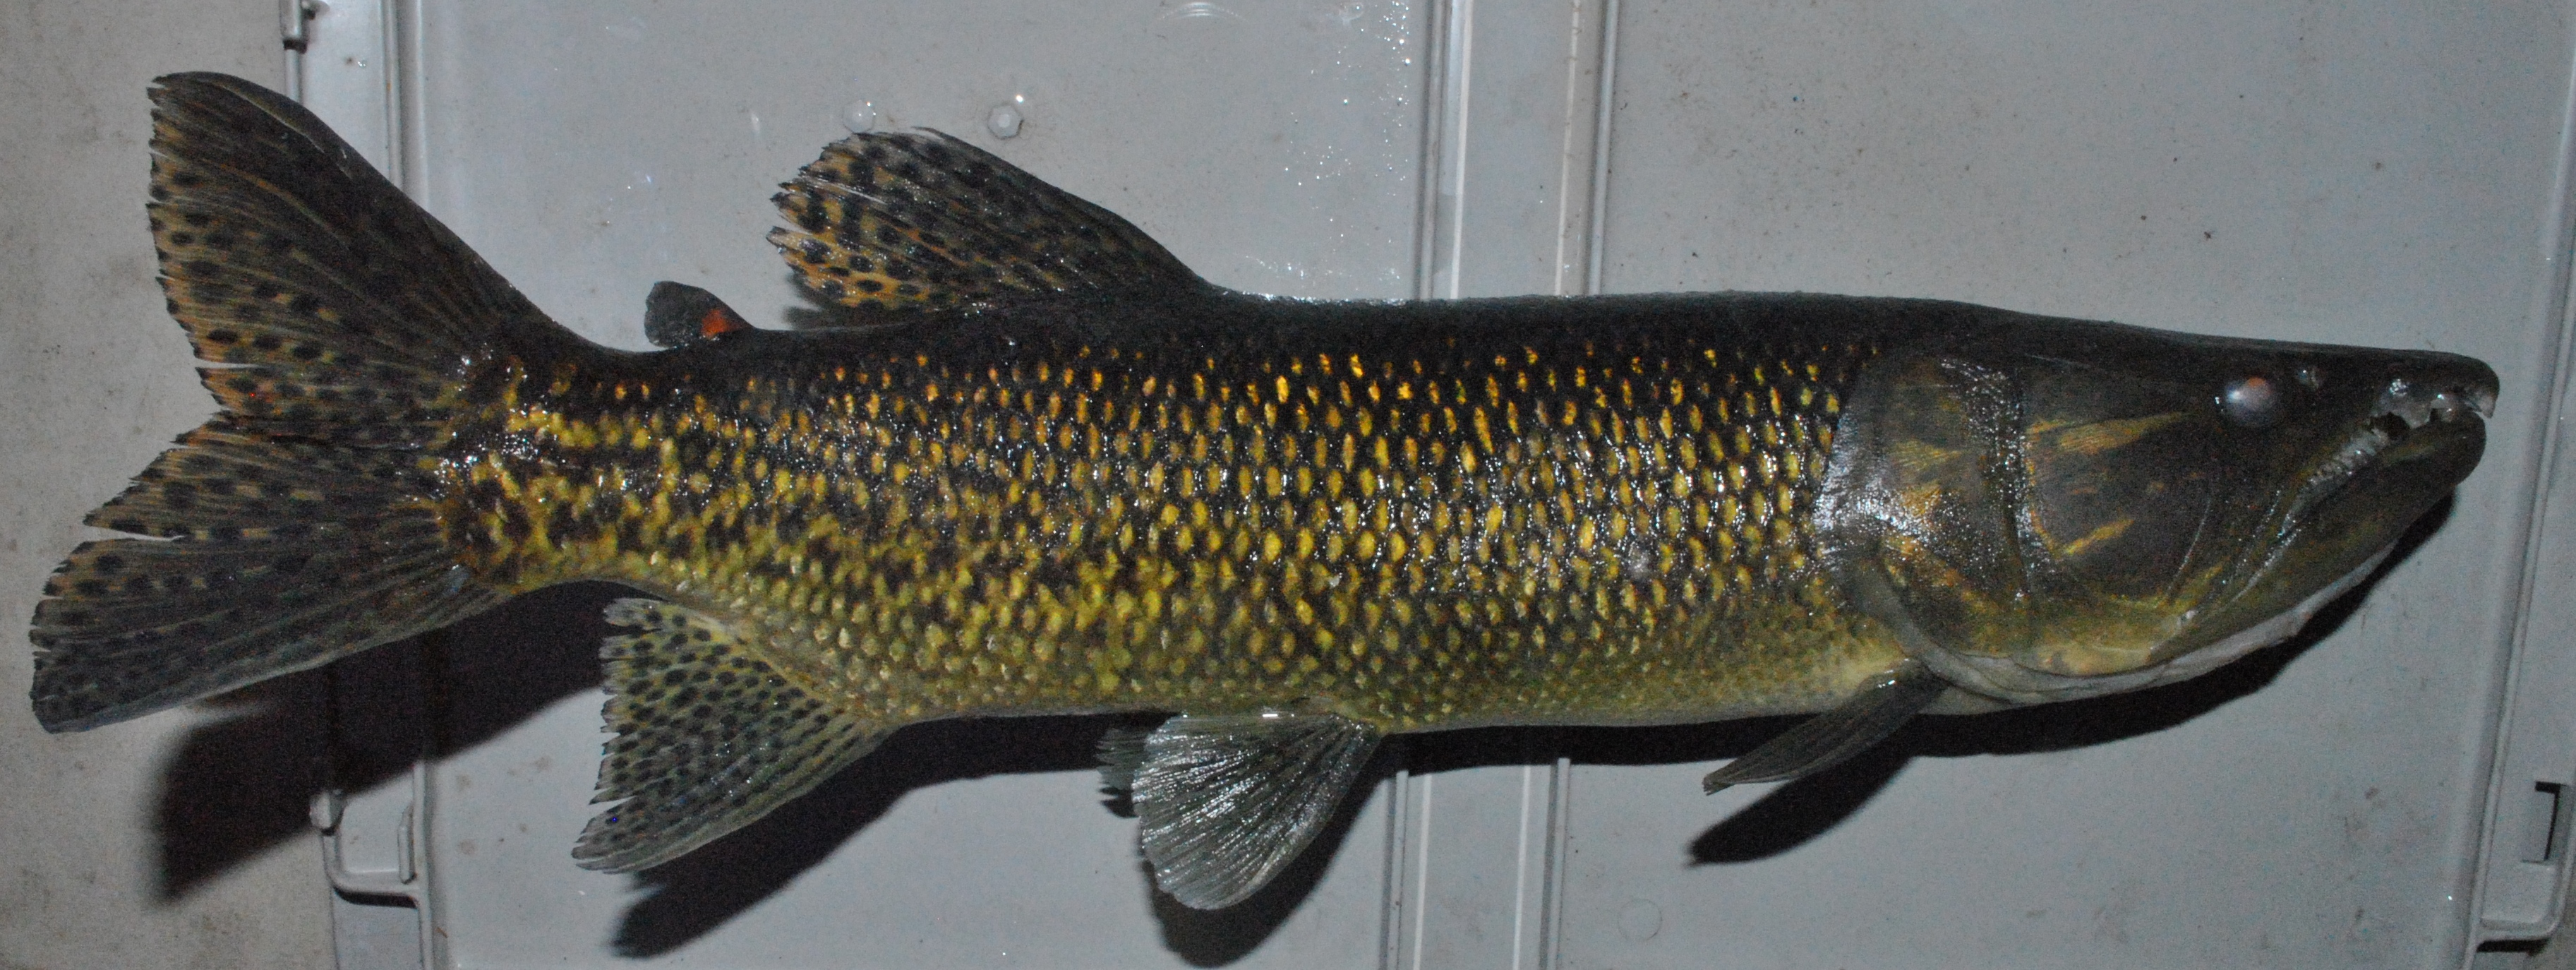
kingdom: Animalia
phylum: Chordata
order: Characiformes
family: Hepsetidae
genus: Hepsetus
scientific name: Hepsetus cuvieri
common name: African pike
